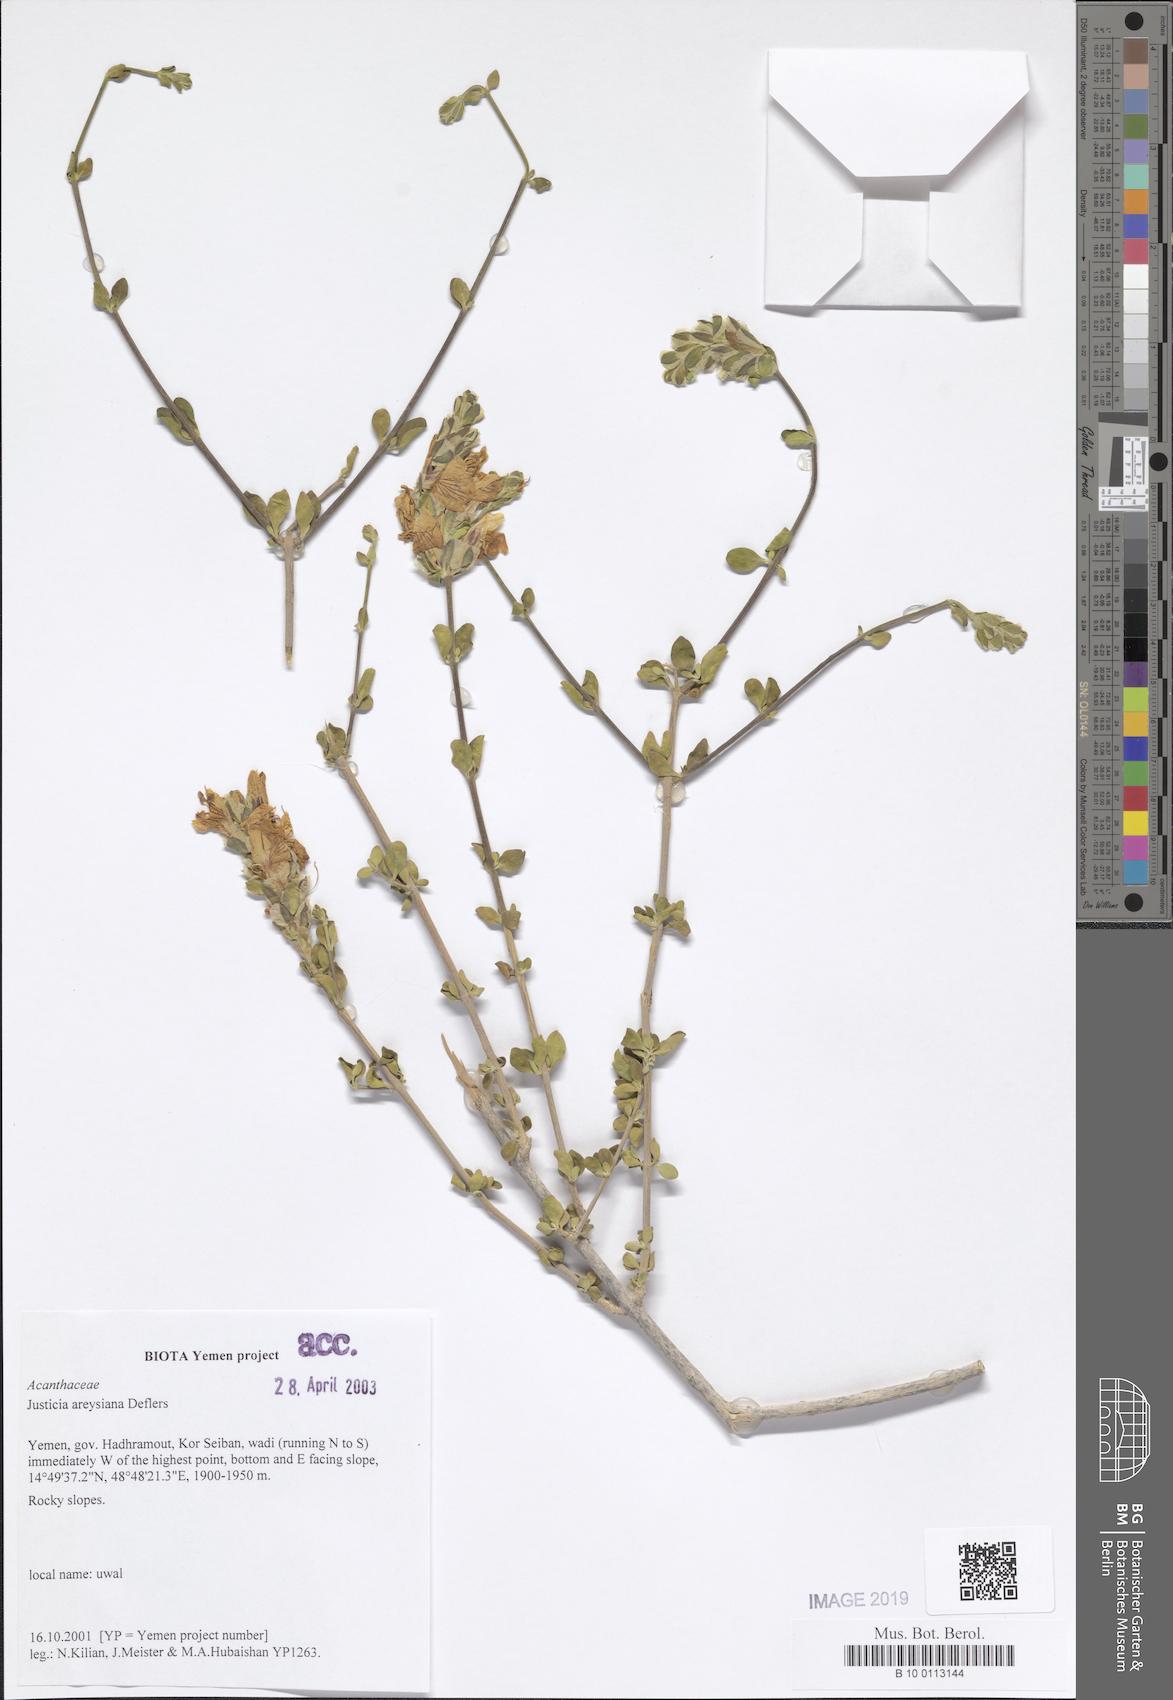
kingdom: Plantae
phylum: Tracheophyta
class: Magnoliopsida
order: Lamiales
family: Acanthaceae
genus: Justicia
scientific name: Justicia areysiana
